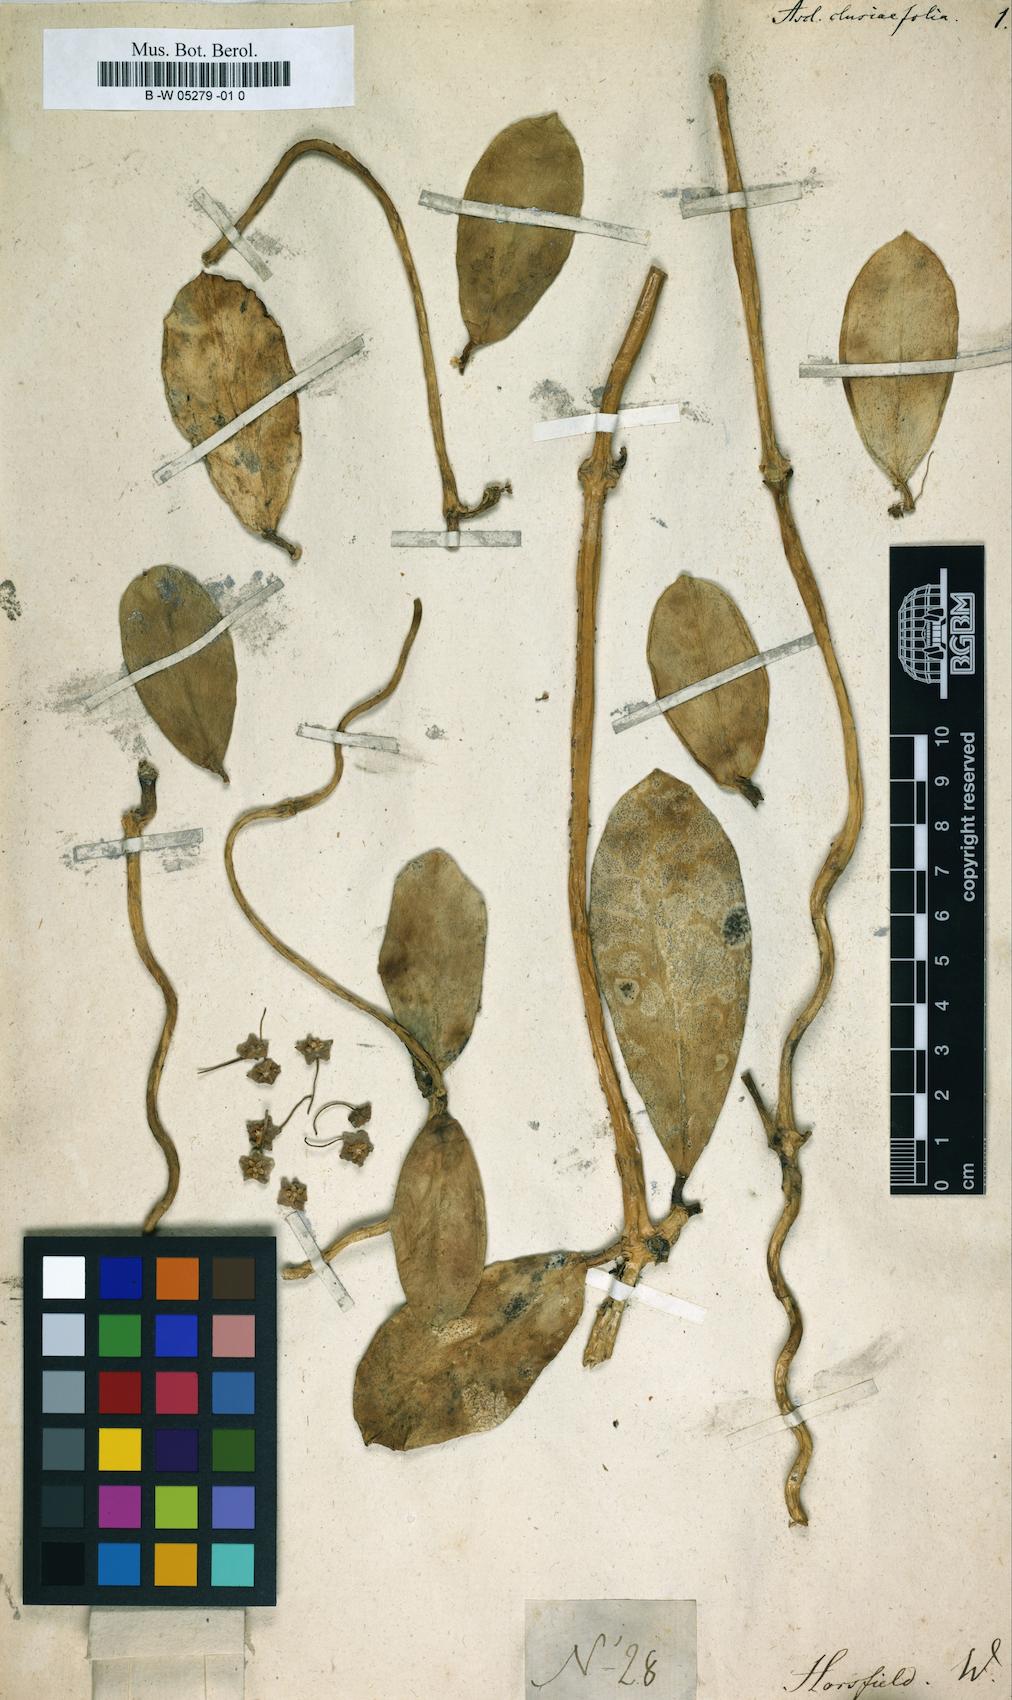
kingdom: Plantae
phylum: Tracheophyta
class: Magnoliopsida
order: Gentianales
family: Apocynaceae
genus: Asclepias
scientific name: Asclepias clusiifolia
